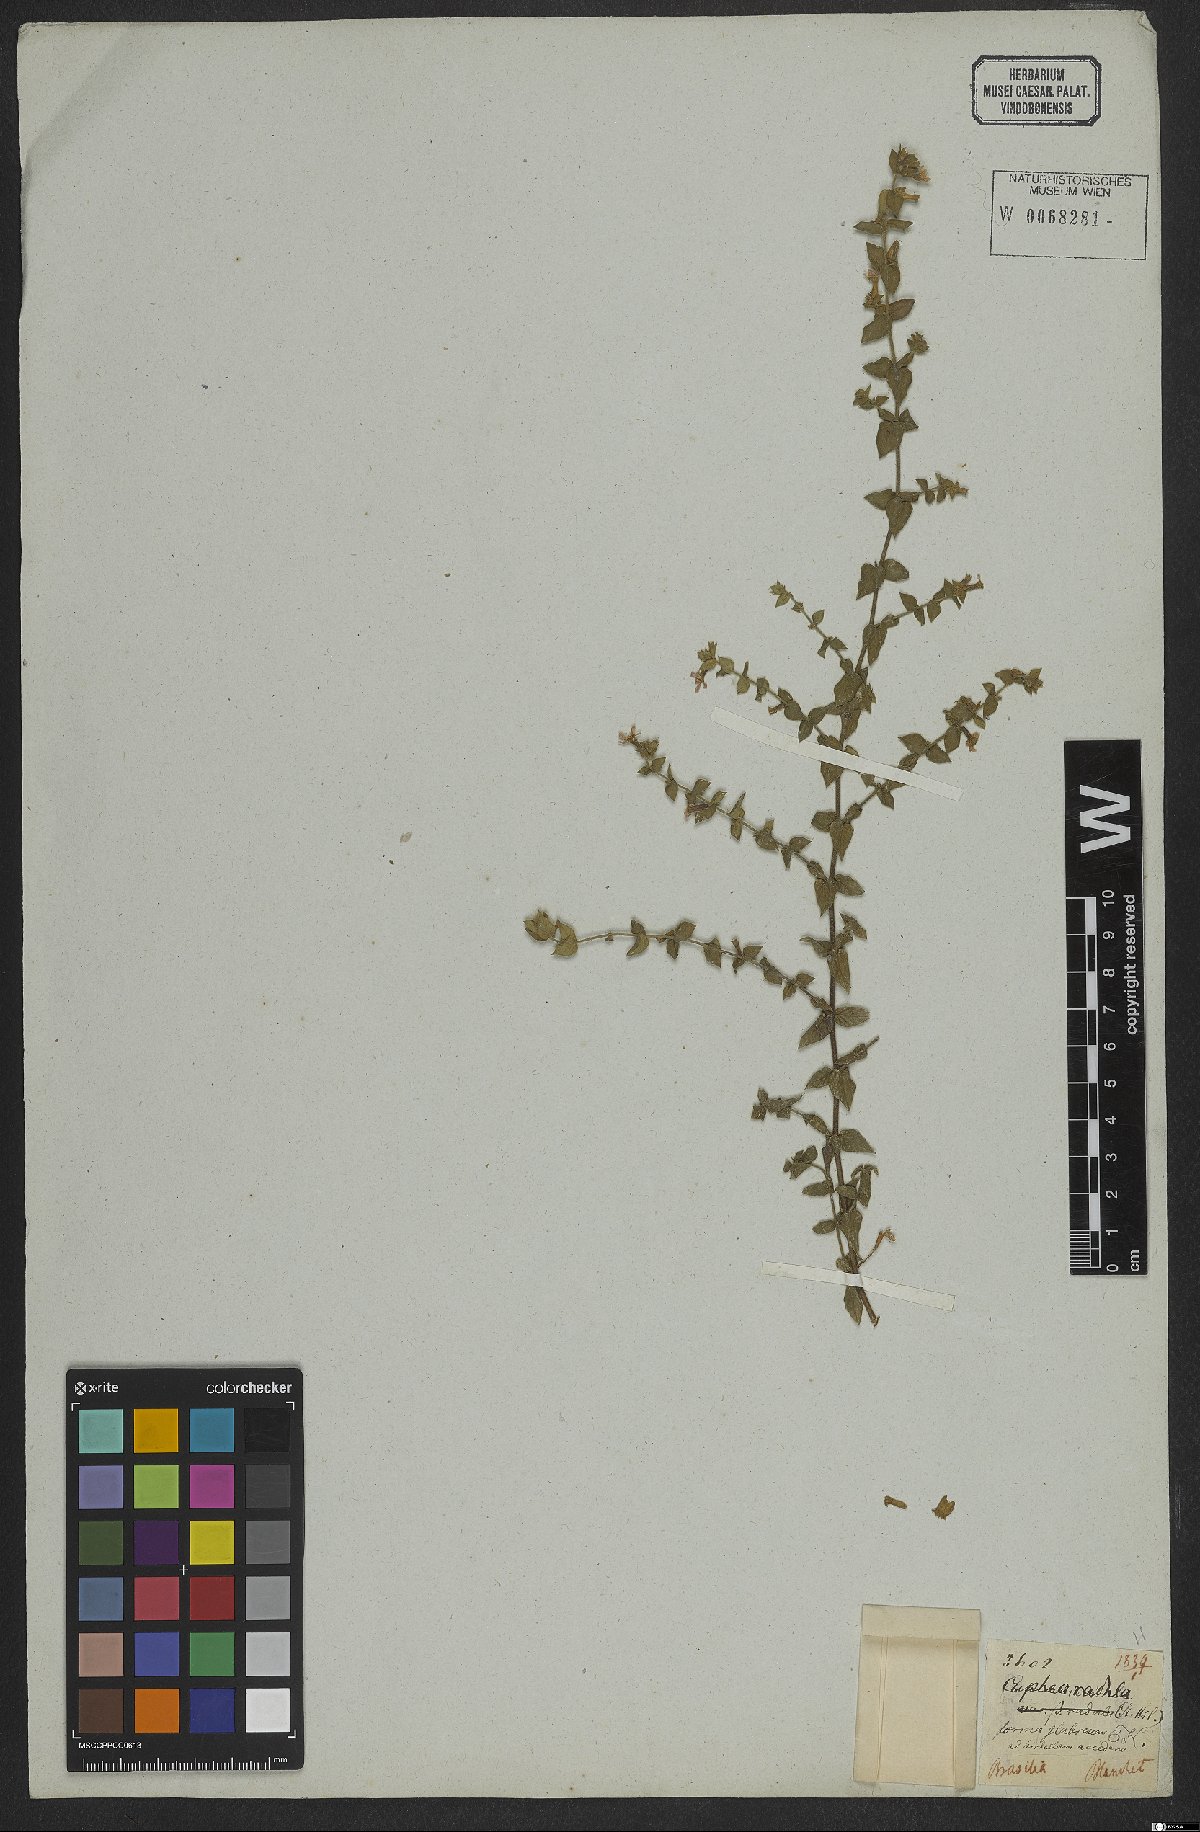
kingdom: Plantae
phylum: Tracheophyta
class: Magnoliopsida
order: Myrtales
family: Lythraceae
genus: Cuphea
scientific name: Cuphea antisyphilitica
